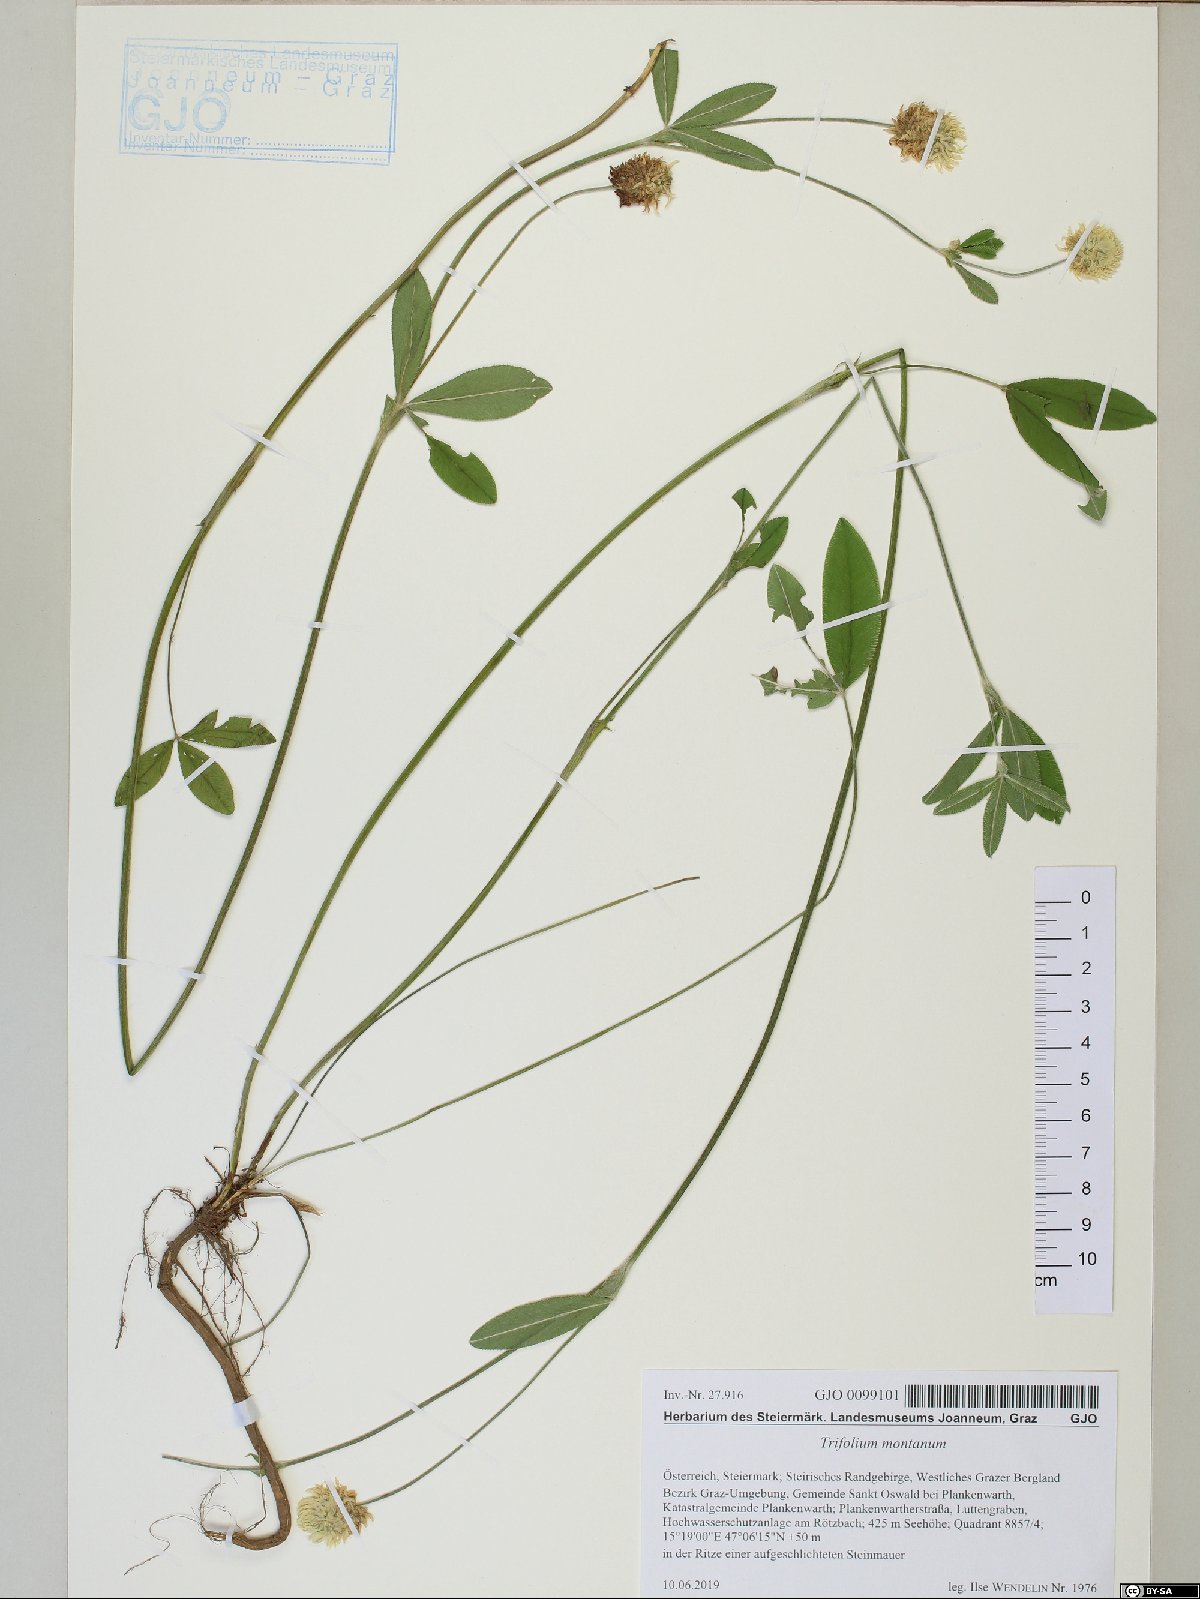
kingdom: Plantae
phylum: Tracheophyta
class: Magnoliopsida
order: Fabales
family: Fabaceae
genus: Trifolium
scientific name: Trifolium montanum
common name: Mountain clover
